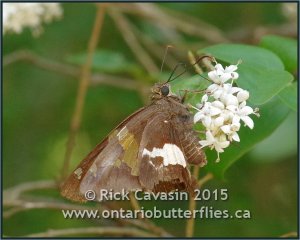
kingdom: Animalia
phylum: Arthropoda
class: Insecta
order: Lepidoptera
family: Hesperiidae
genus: Epargyreus
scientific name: Epargyreus clarus
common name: Silver-spotted Skipper
